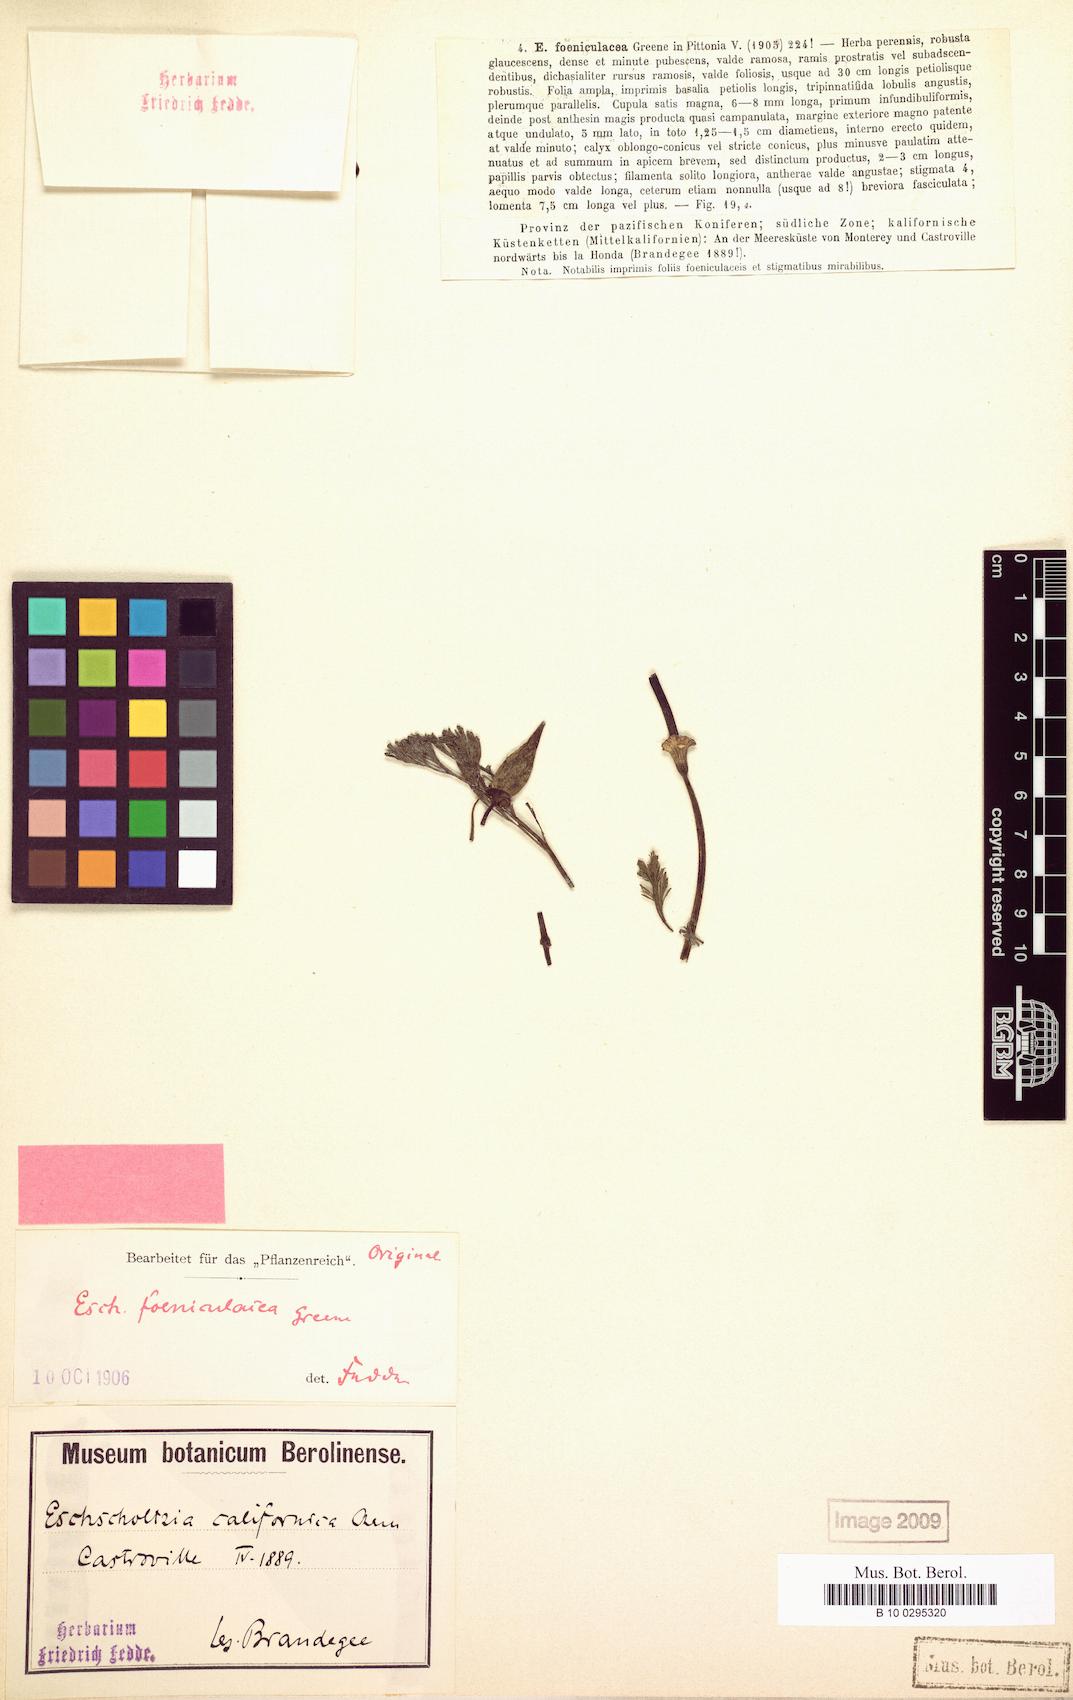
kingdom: Plantae
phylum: Tracheophyta
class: Magnoliopsida
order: Ranunculales
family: Papaveraceae
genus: Eschscholzia
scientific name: Eschscholzia californica
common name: California poppy
